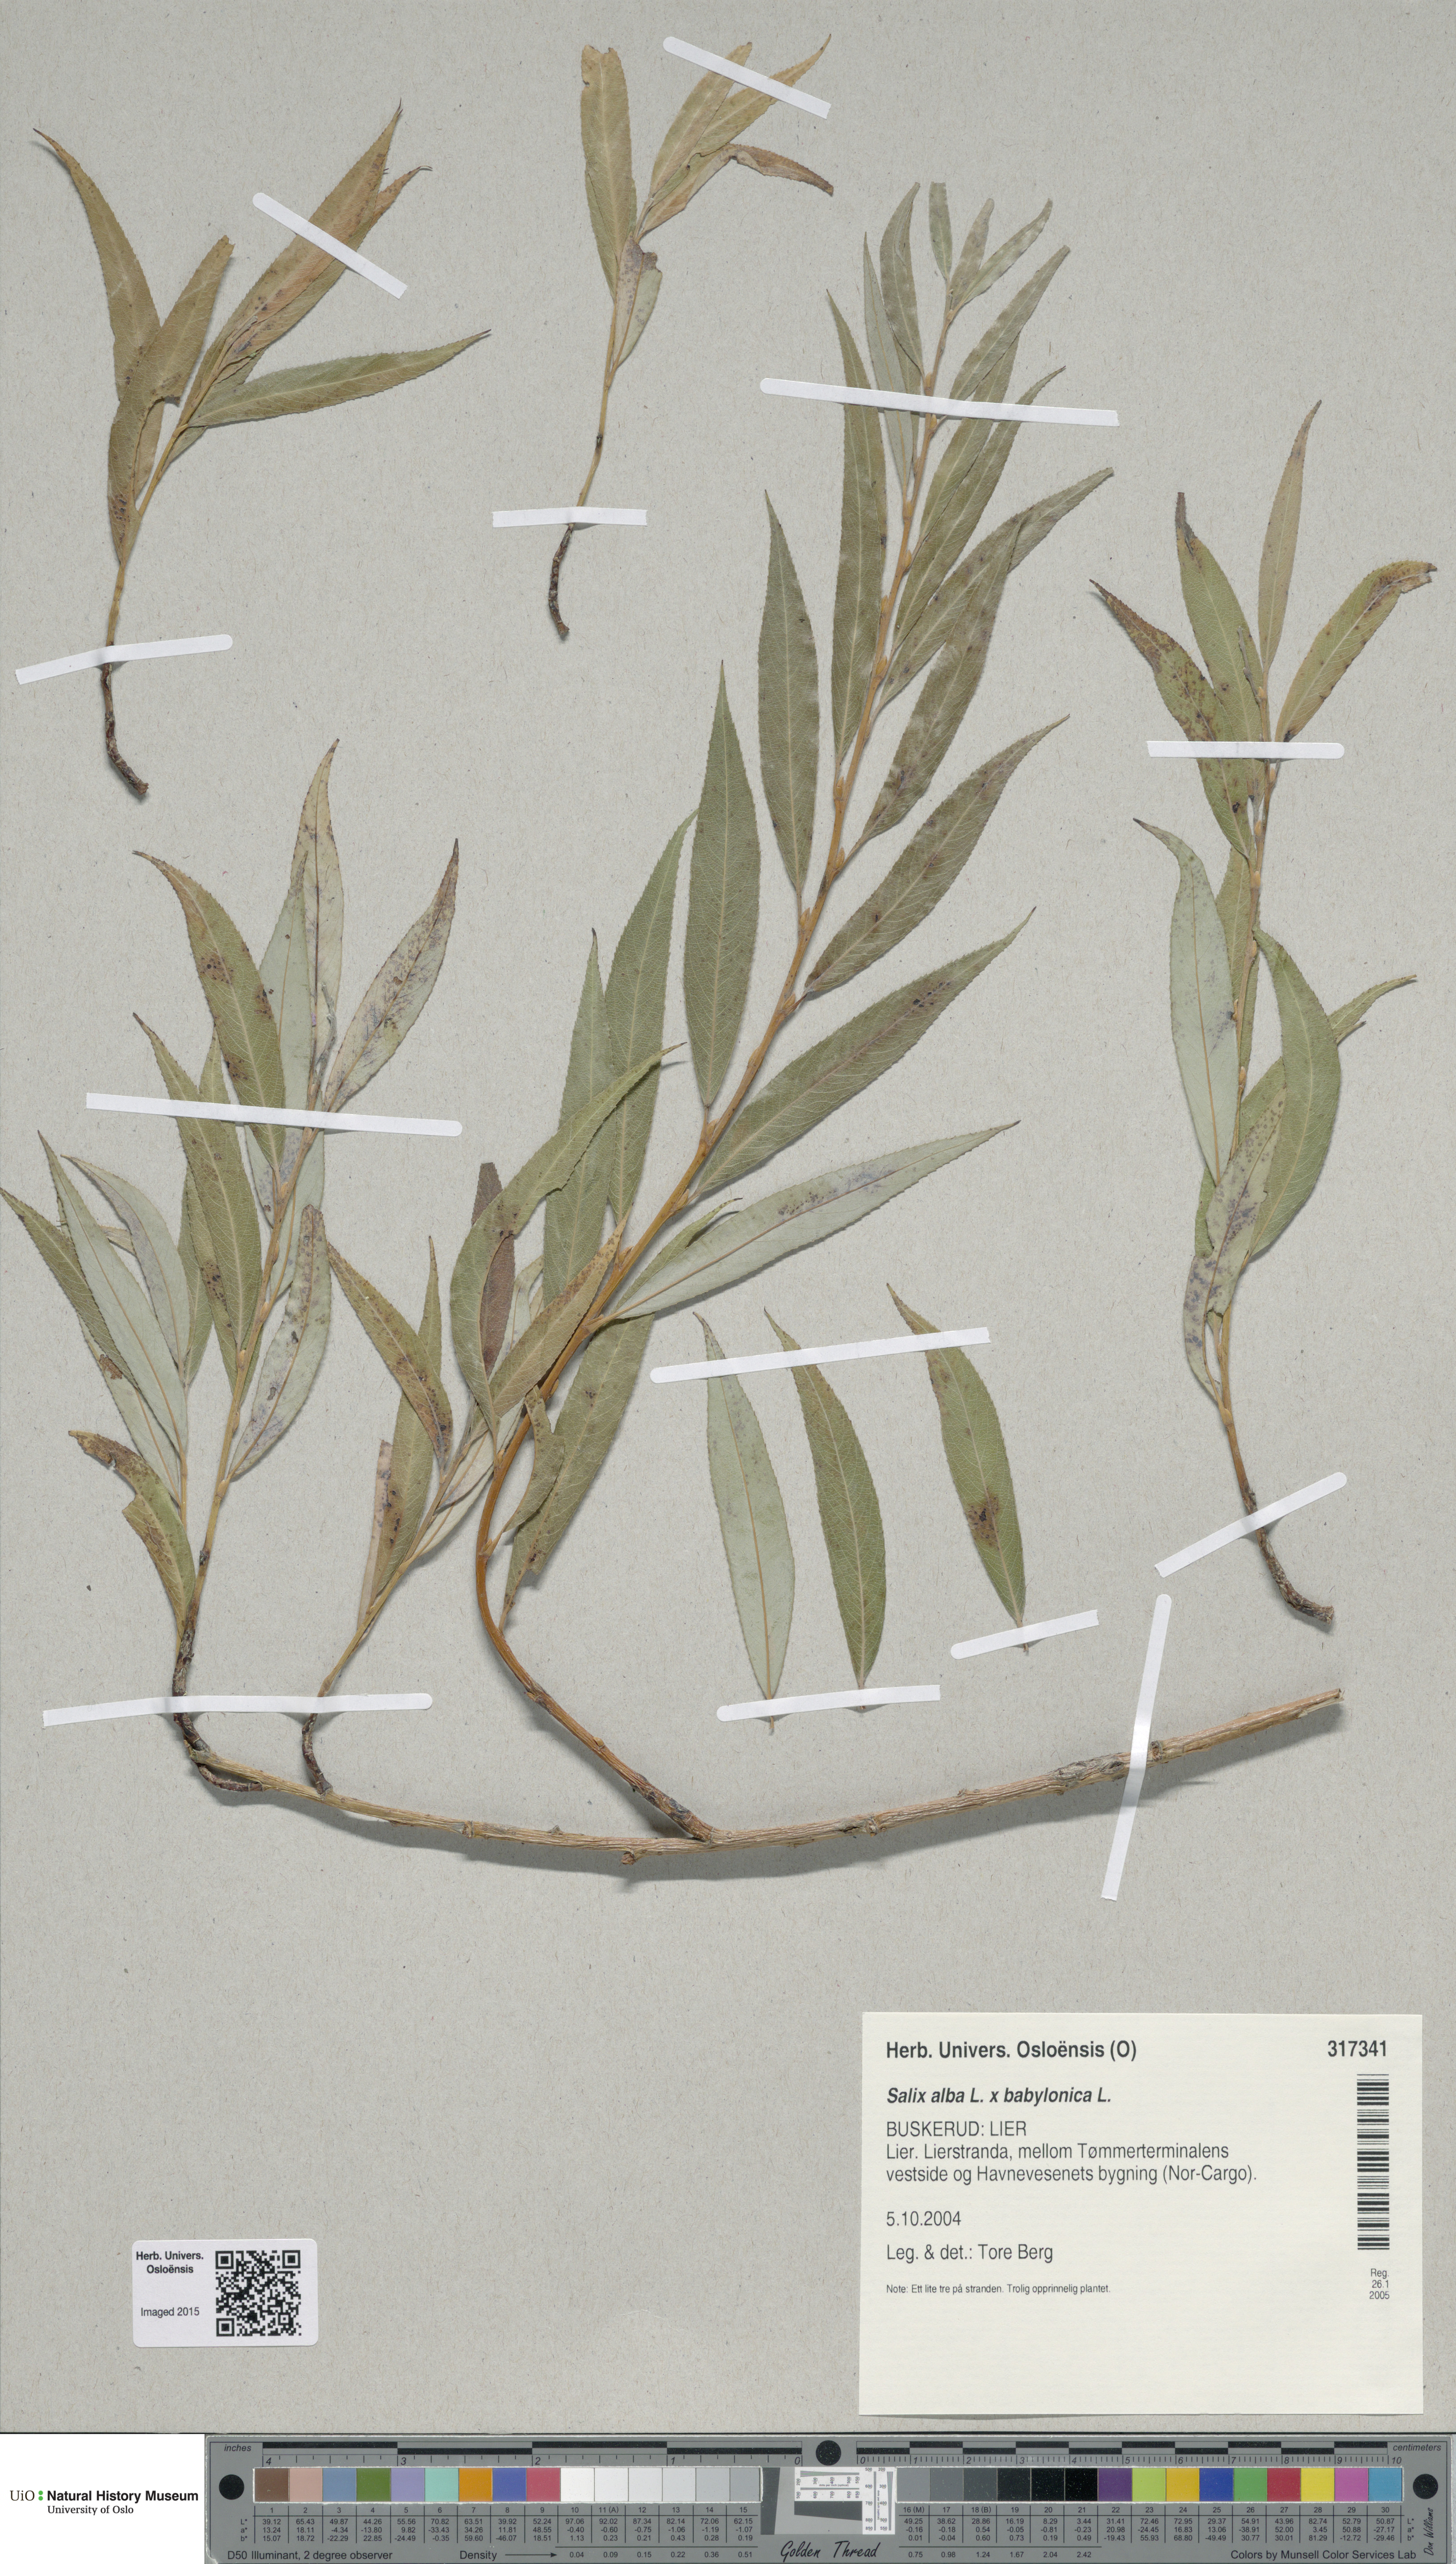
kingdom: Plantae
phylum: Tracheophyta
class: Magnoliopsida
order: Malpighiales
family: Salicaceae
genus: Salix
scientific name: Salix
